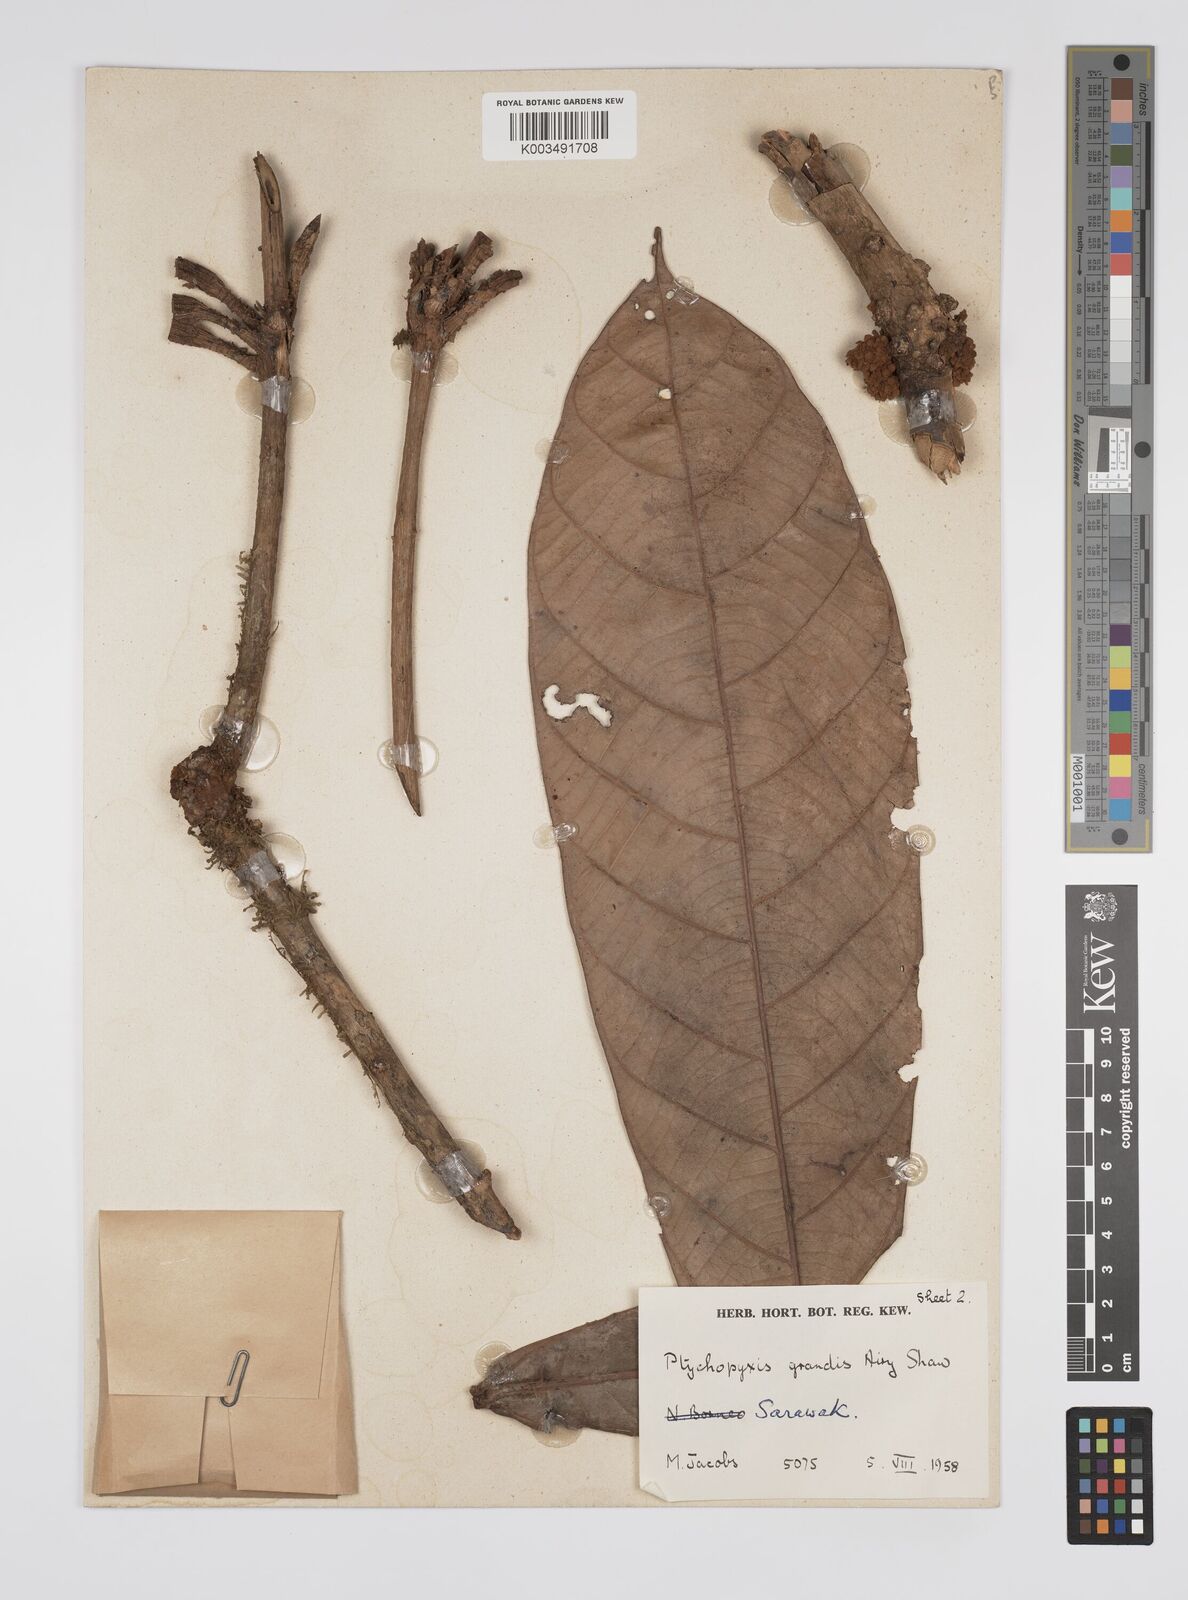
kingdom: Plantae
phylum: Tracheophyta
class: Magnoliopsida
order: Malpighiales
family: Euphorbiaceae
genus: Ptychopyxis
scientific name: Ptychopyxis grandis
